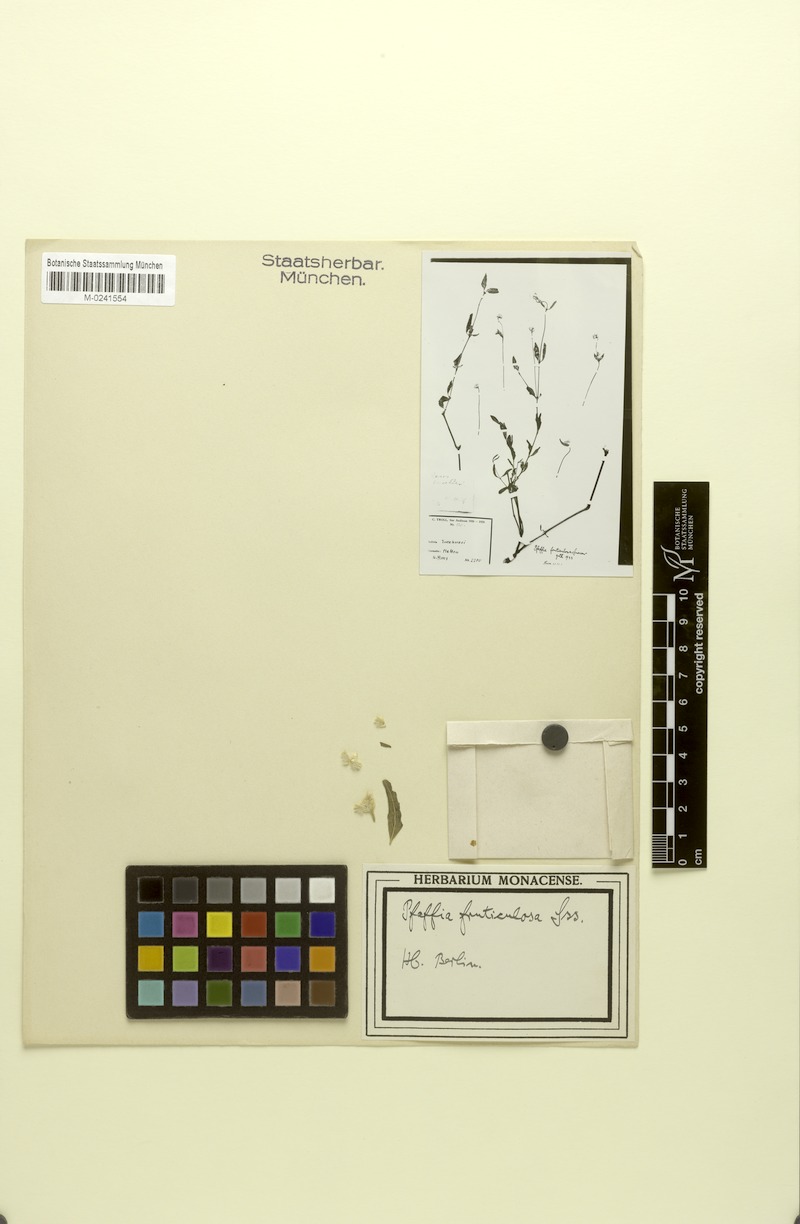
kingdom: Plantae
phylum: Tracheophyta
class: Magnoliopsida
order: Caryophyllales
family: Amaranthaceae
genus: Pfaffia
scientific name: Pfaffia fruticulosa
